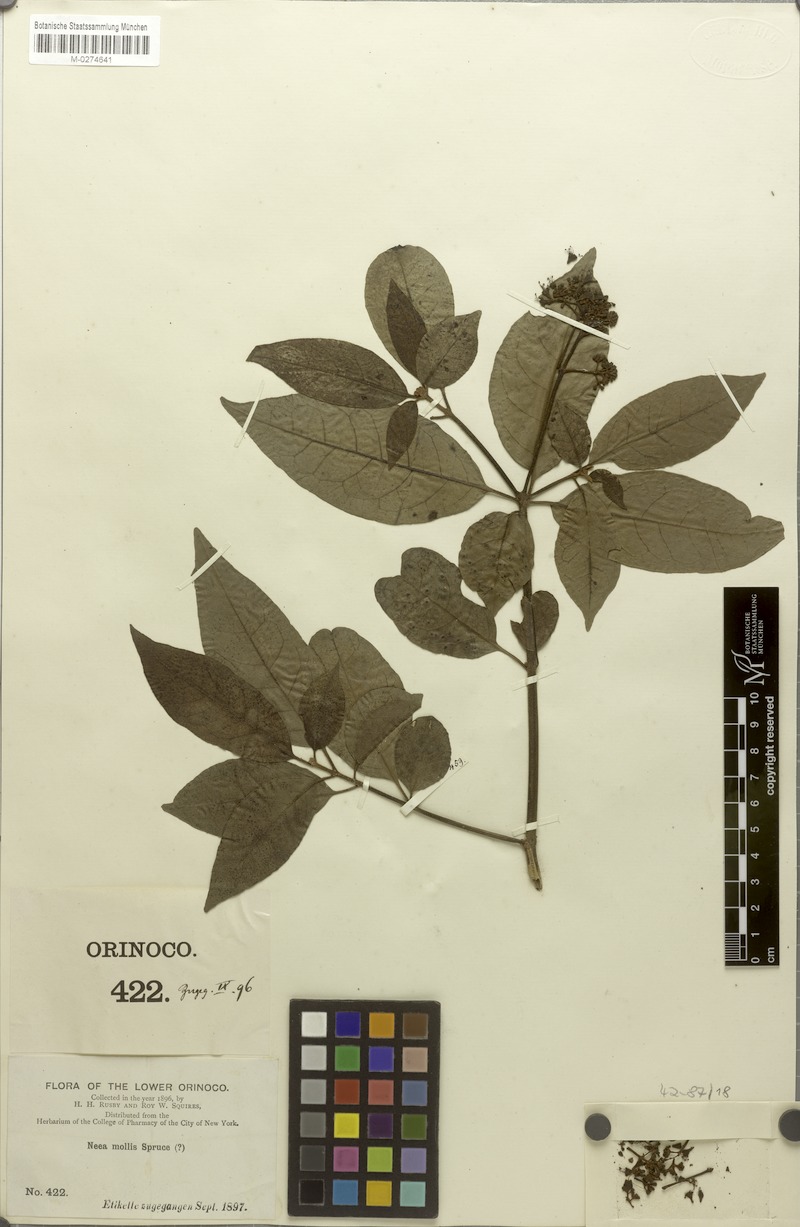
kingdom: Plantae
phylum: Tracheophyta
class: Magnoliopsida
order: Caryophyllales
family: Nyctaginaceae
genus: Guapira
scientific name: Guapira rusbyana
